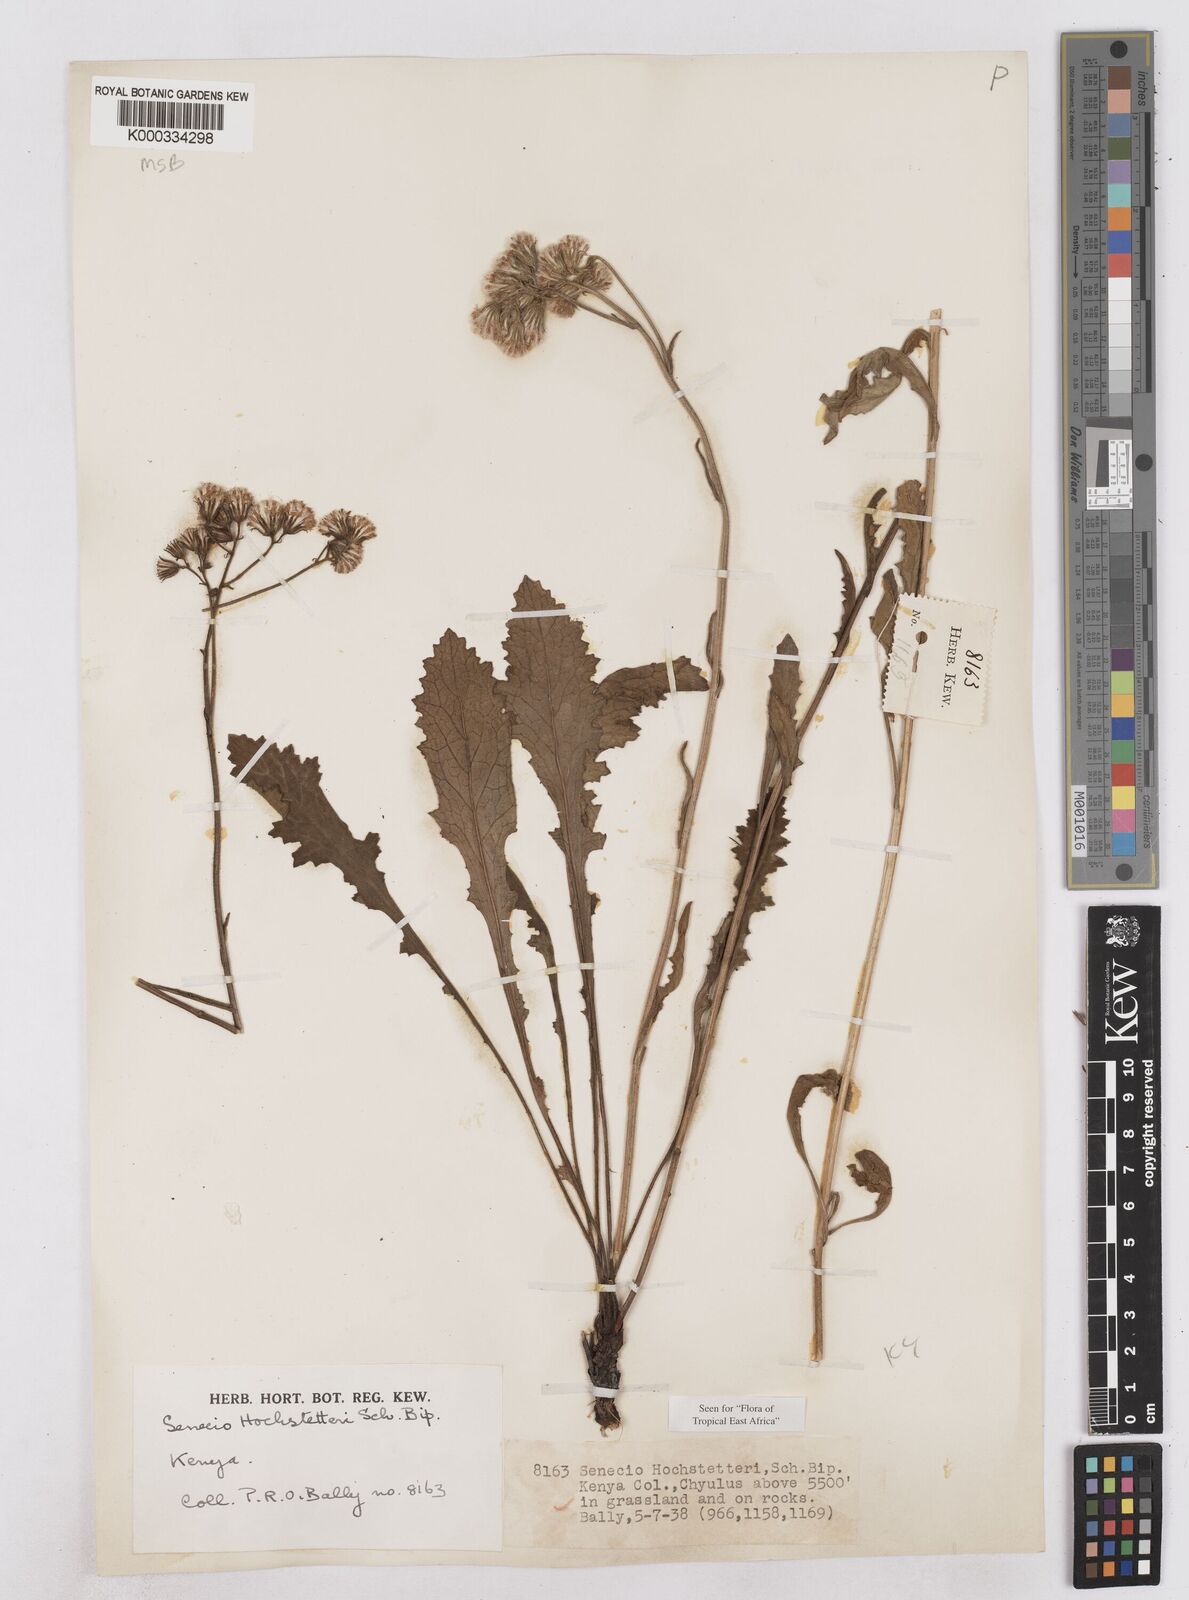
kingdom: Plantae
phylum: Tracheophyta
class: Magnoliopsida
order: Asterales
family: Asteraceae
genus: Senecio
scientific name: Senecio hochstetteri
